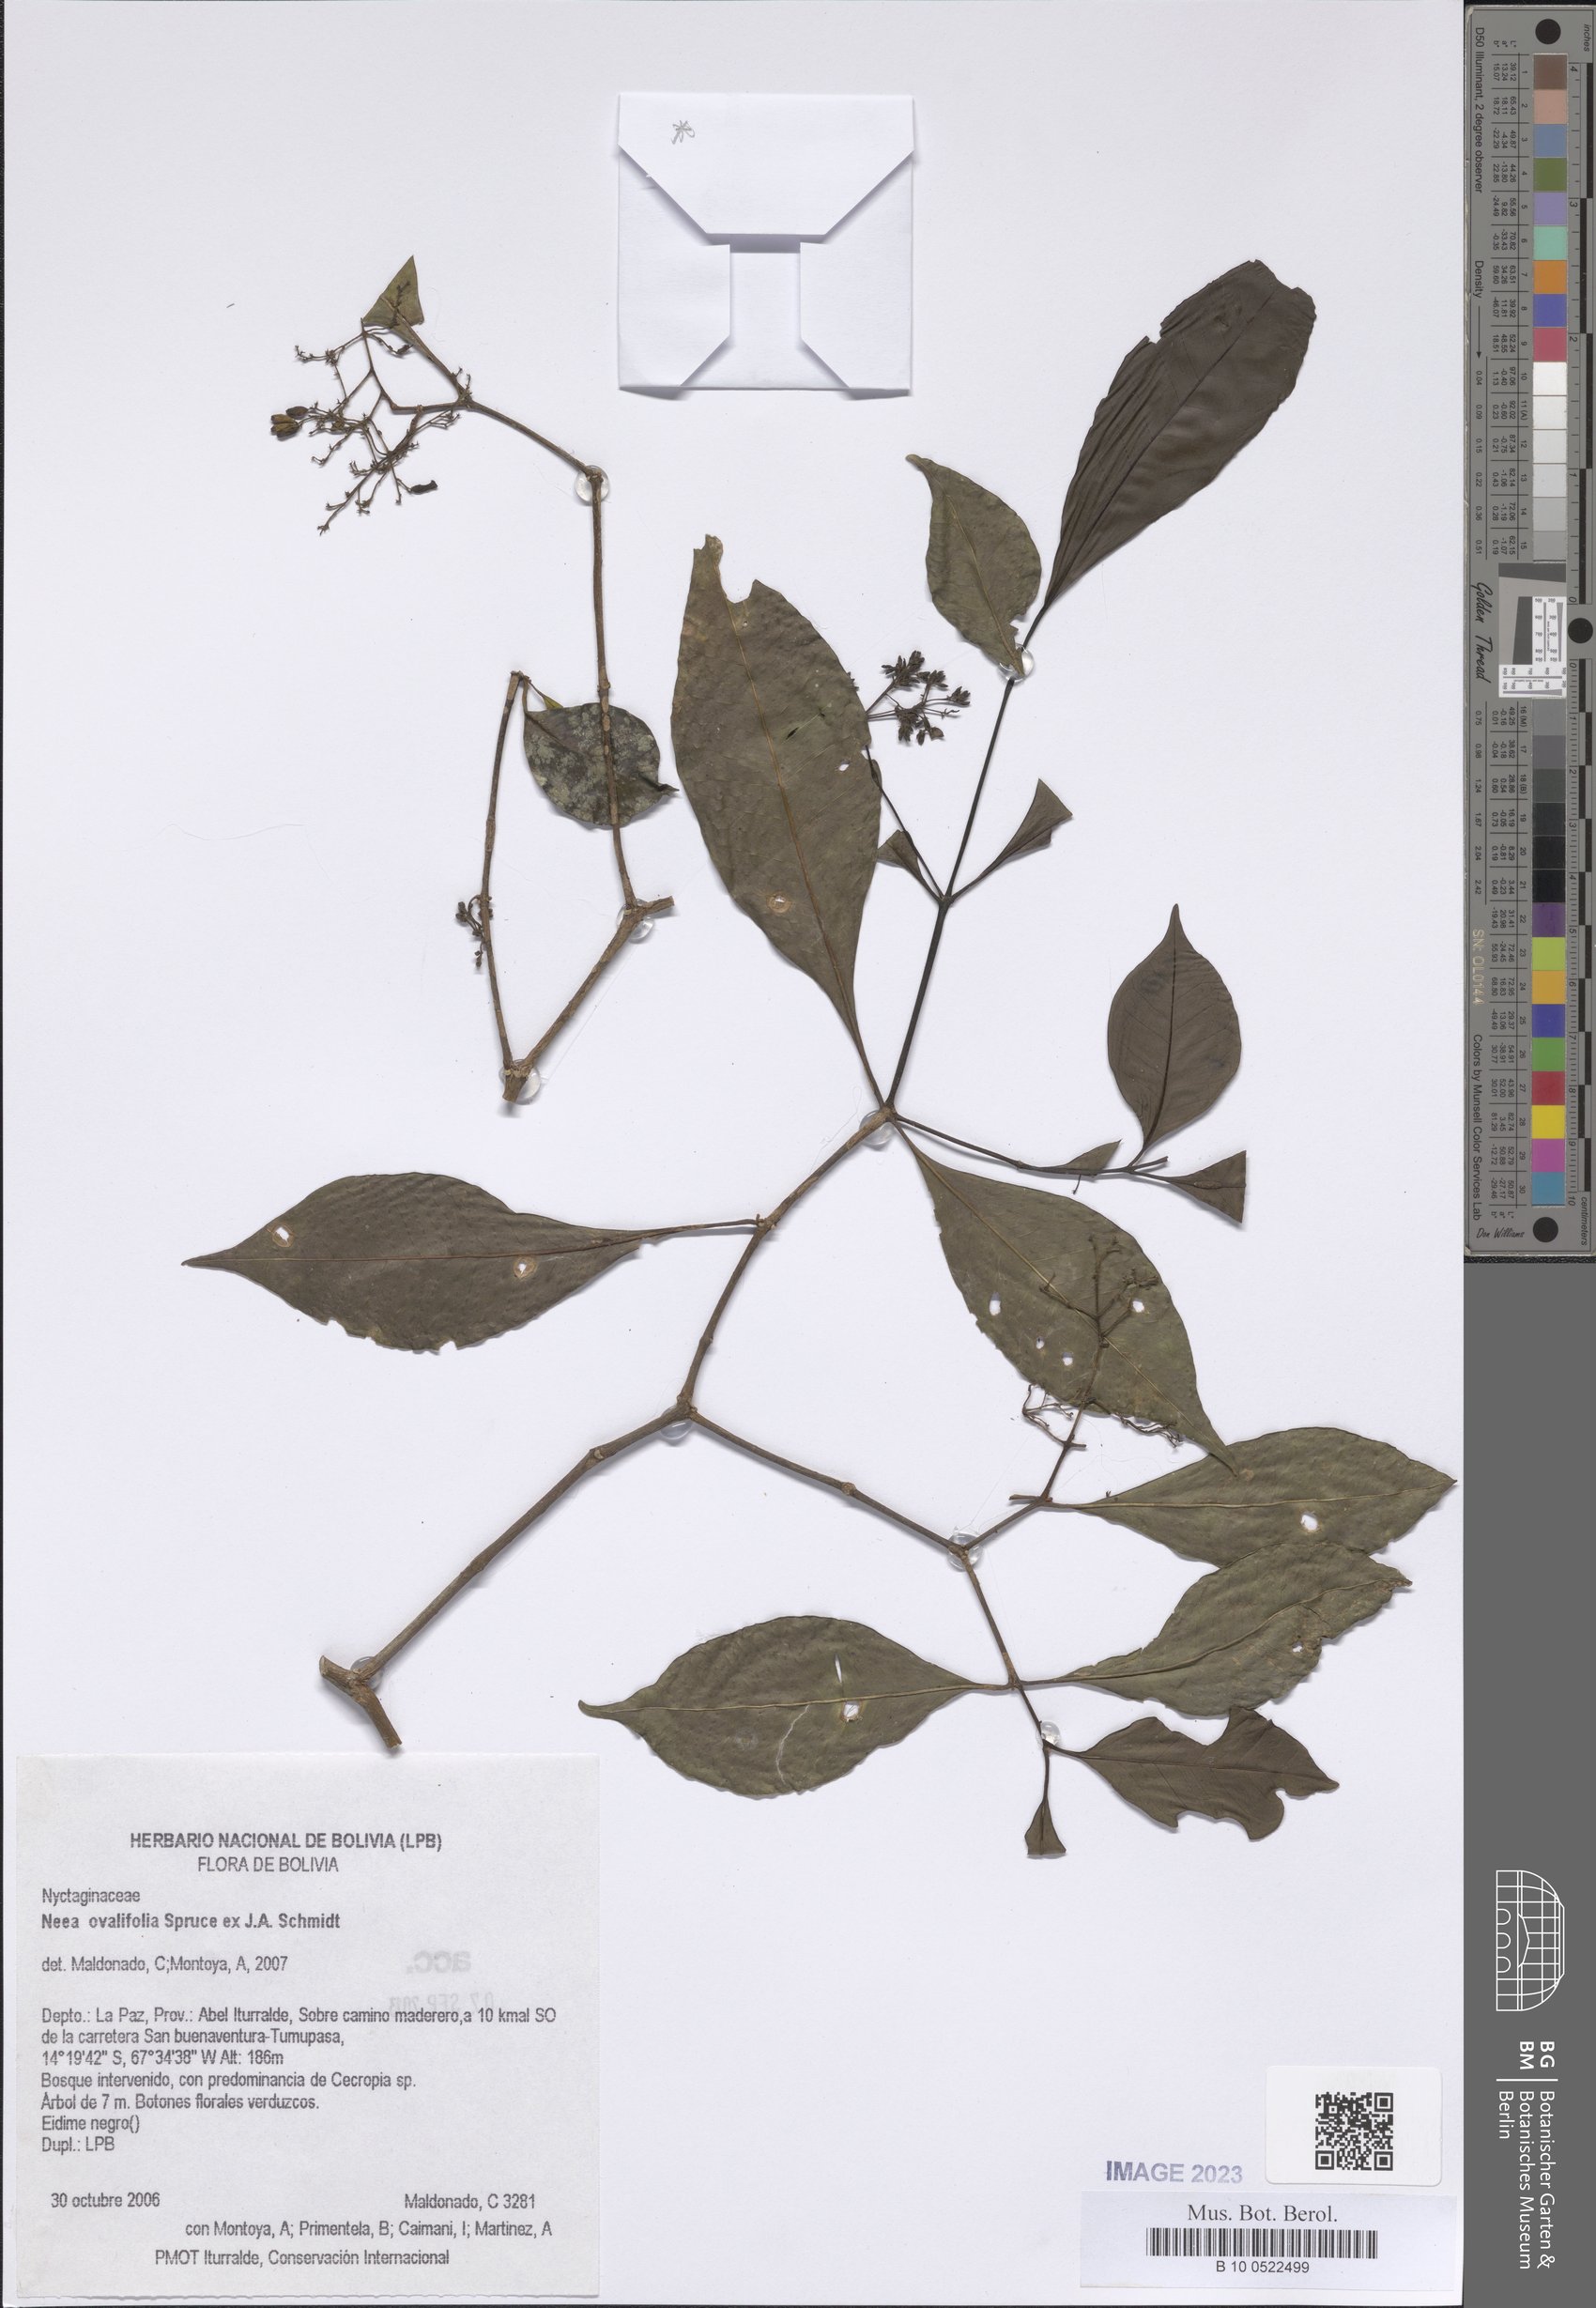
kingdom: Plantae
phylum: Tracheophyta
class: Magnoliopsida
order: Caryophyllales
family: Nyctaginaceae
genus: Neea
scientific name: Neea ovalifolia
